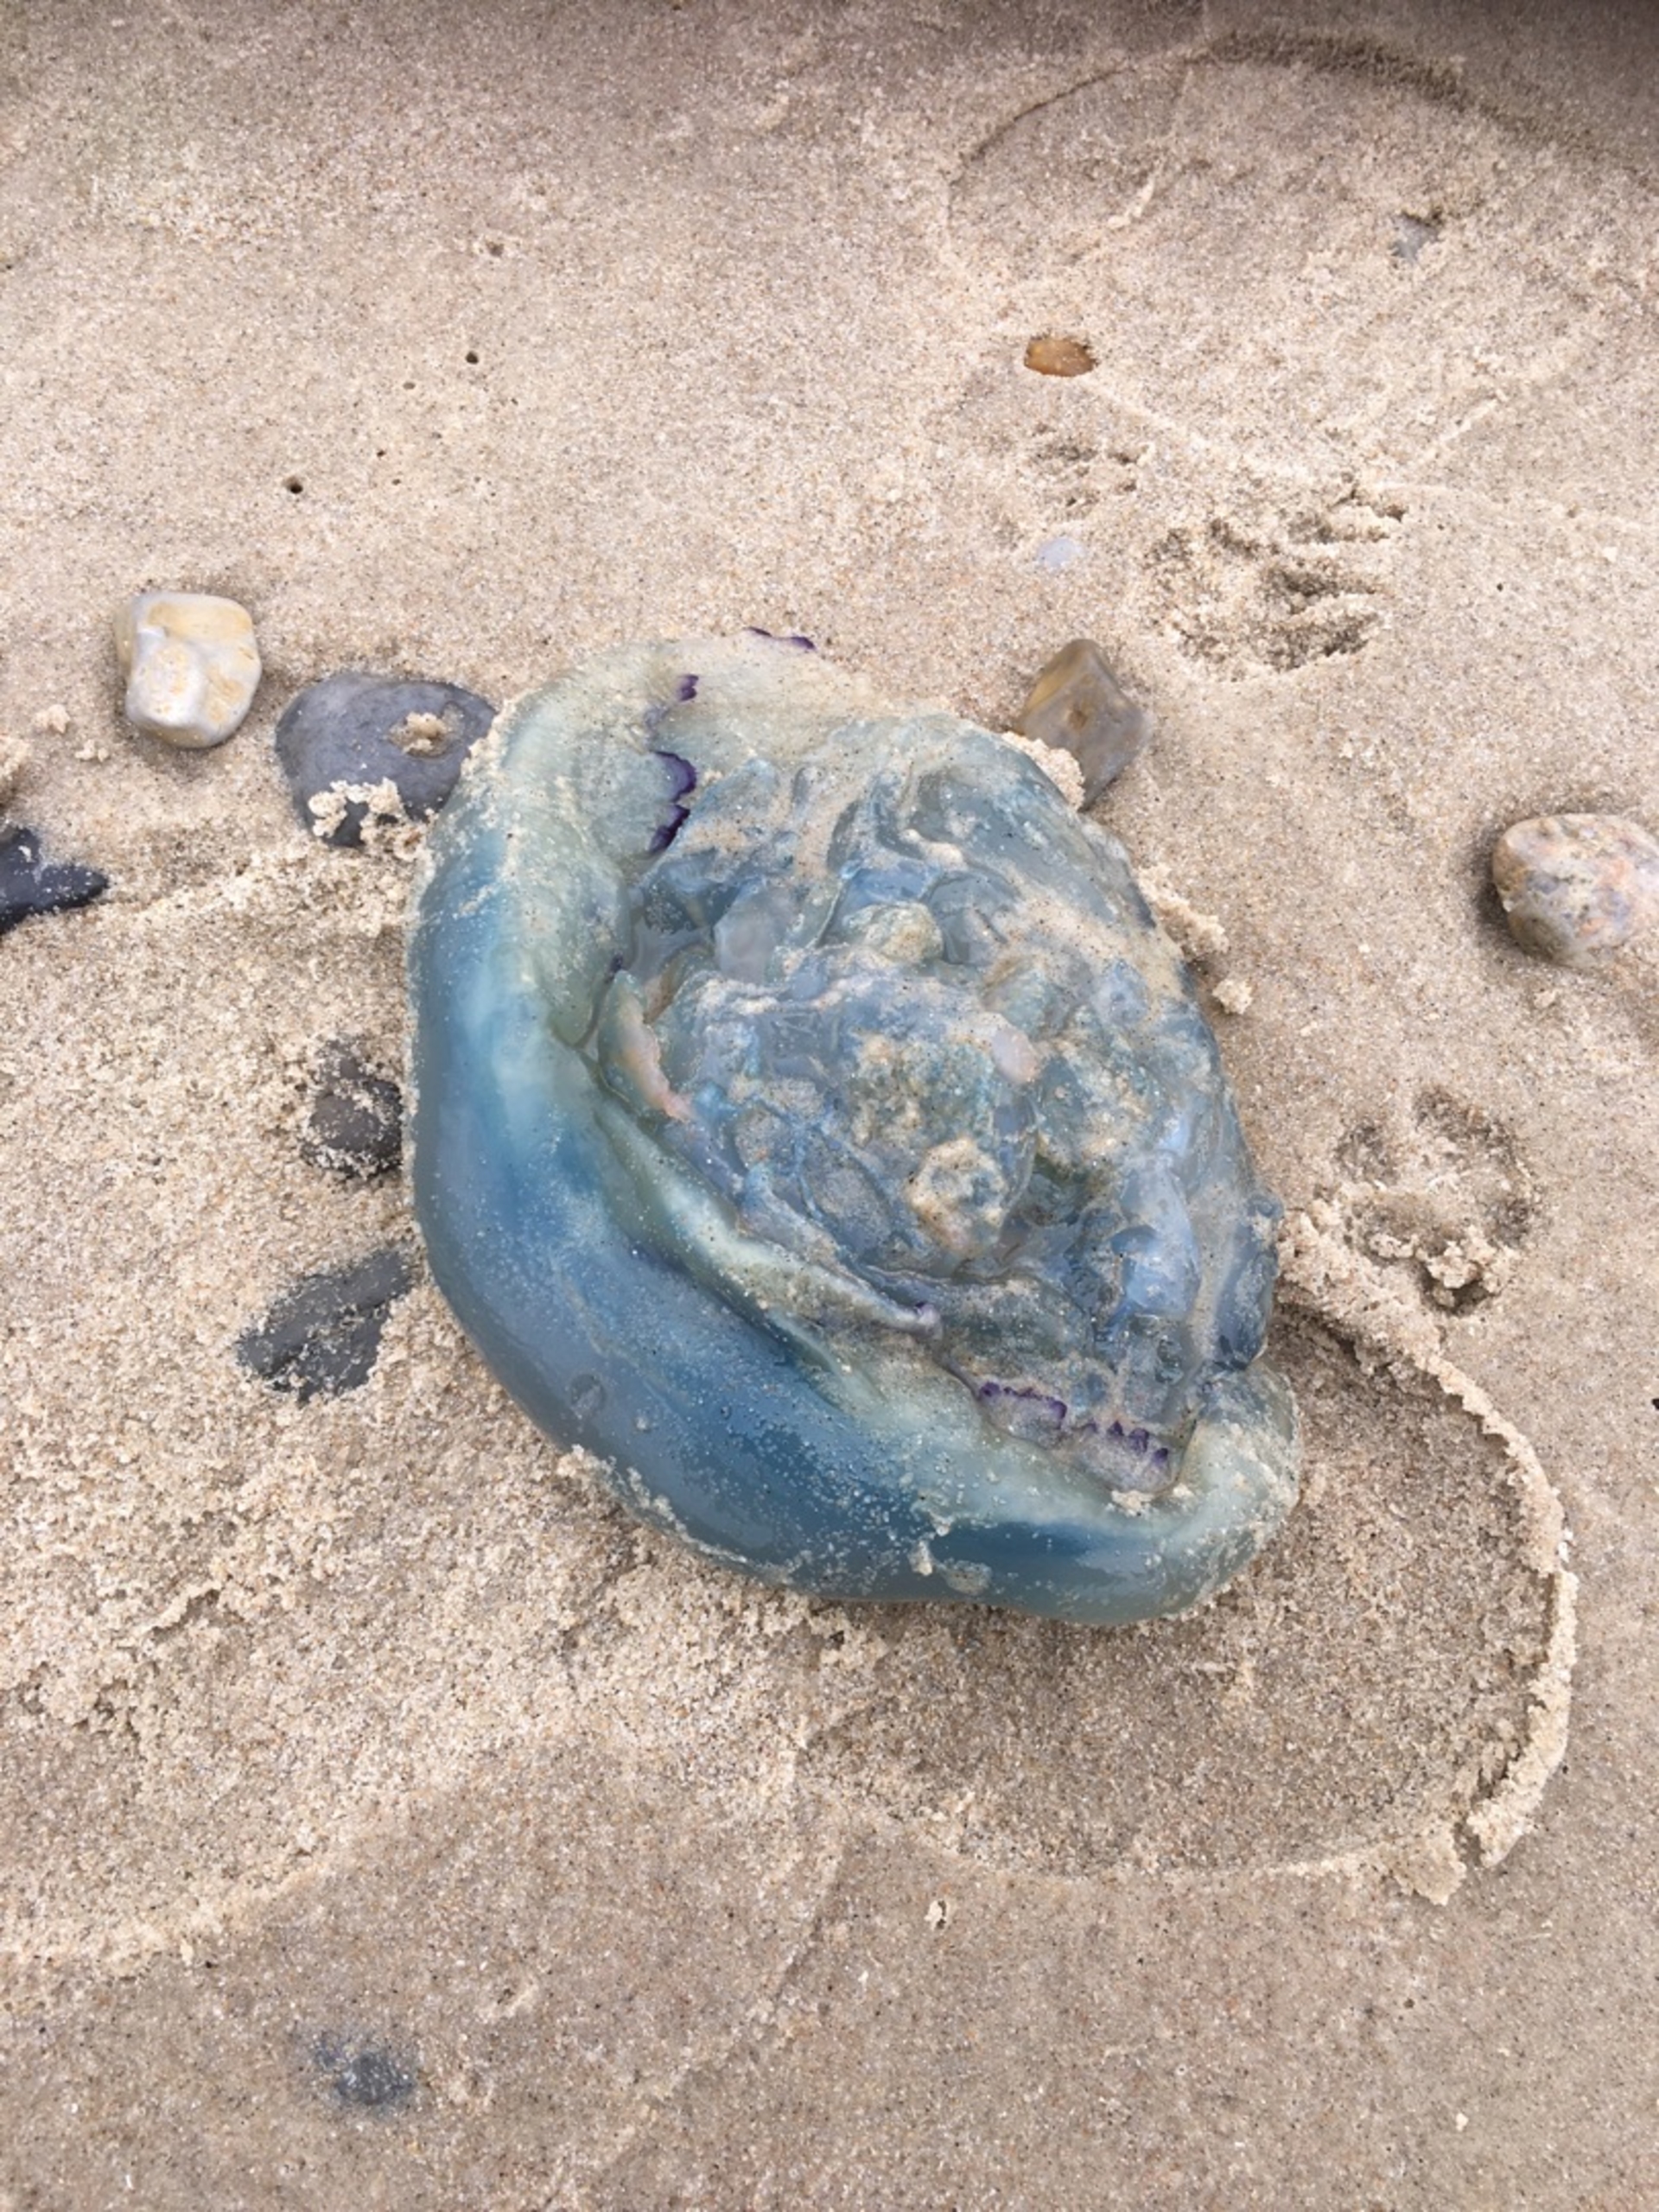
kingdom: Animalia
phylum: Cnidaria
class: Scyphozoa
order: Rhizostomeae
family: Rhizostomatidae
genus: Rhizostoma
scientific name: Rhizostoma pulmo
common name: Lungegople
